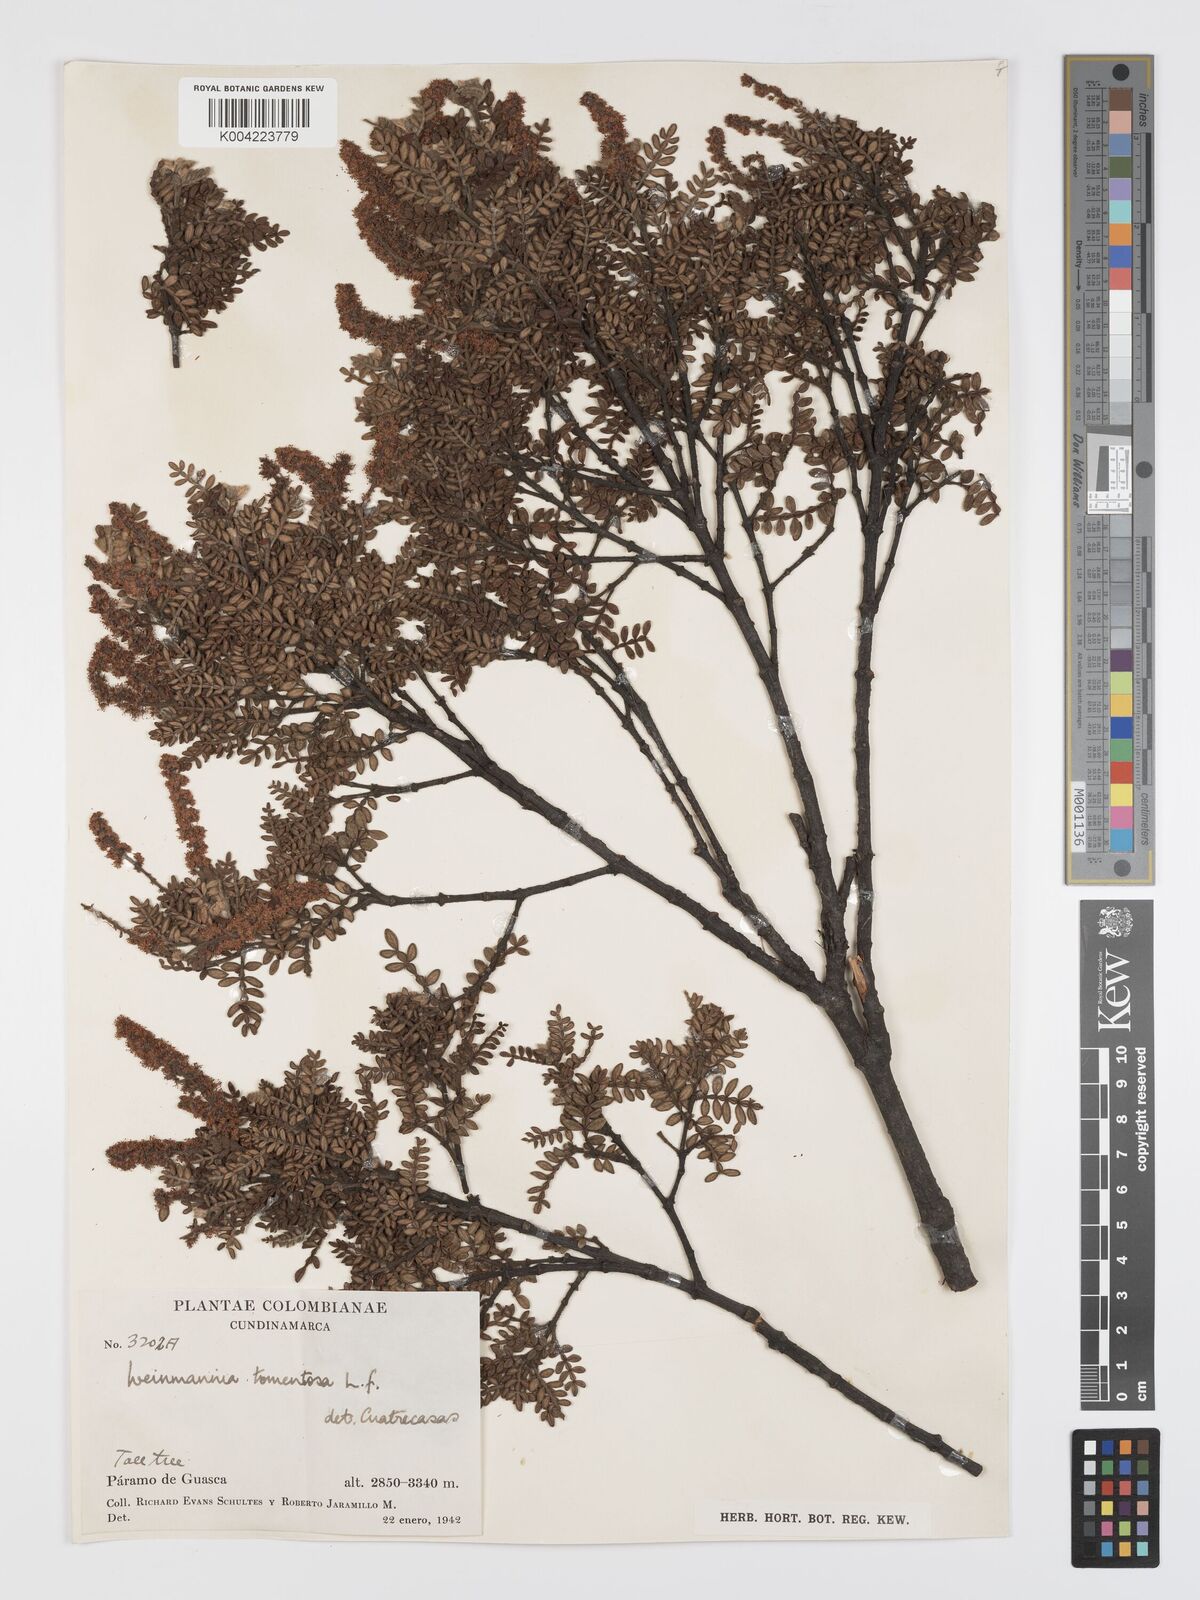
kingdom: Plantae
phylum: Tracheophyta
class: Magnoliopsida
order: Oxalidales
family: Cunoniaceae
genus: Weinmannia
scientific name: Weinmannia tomentosa
